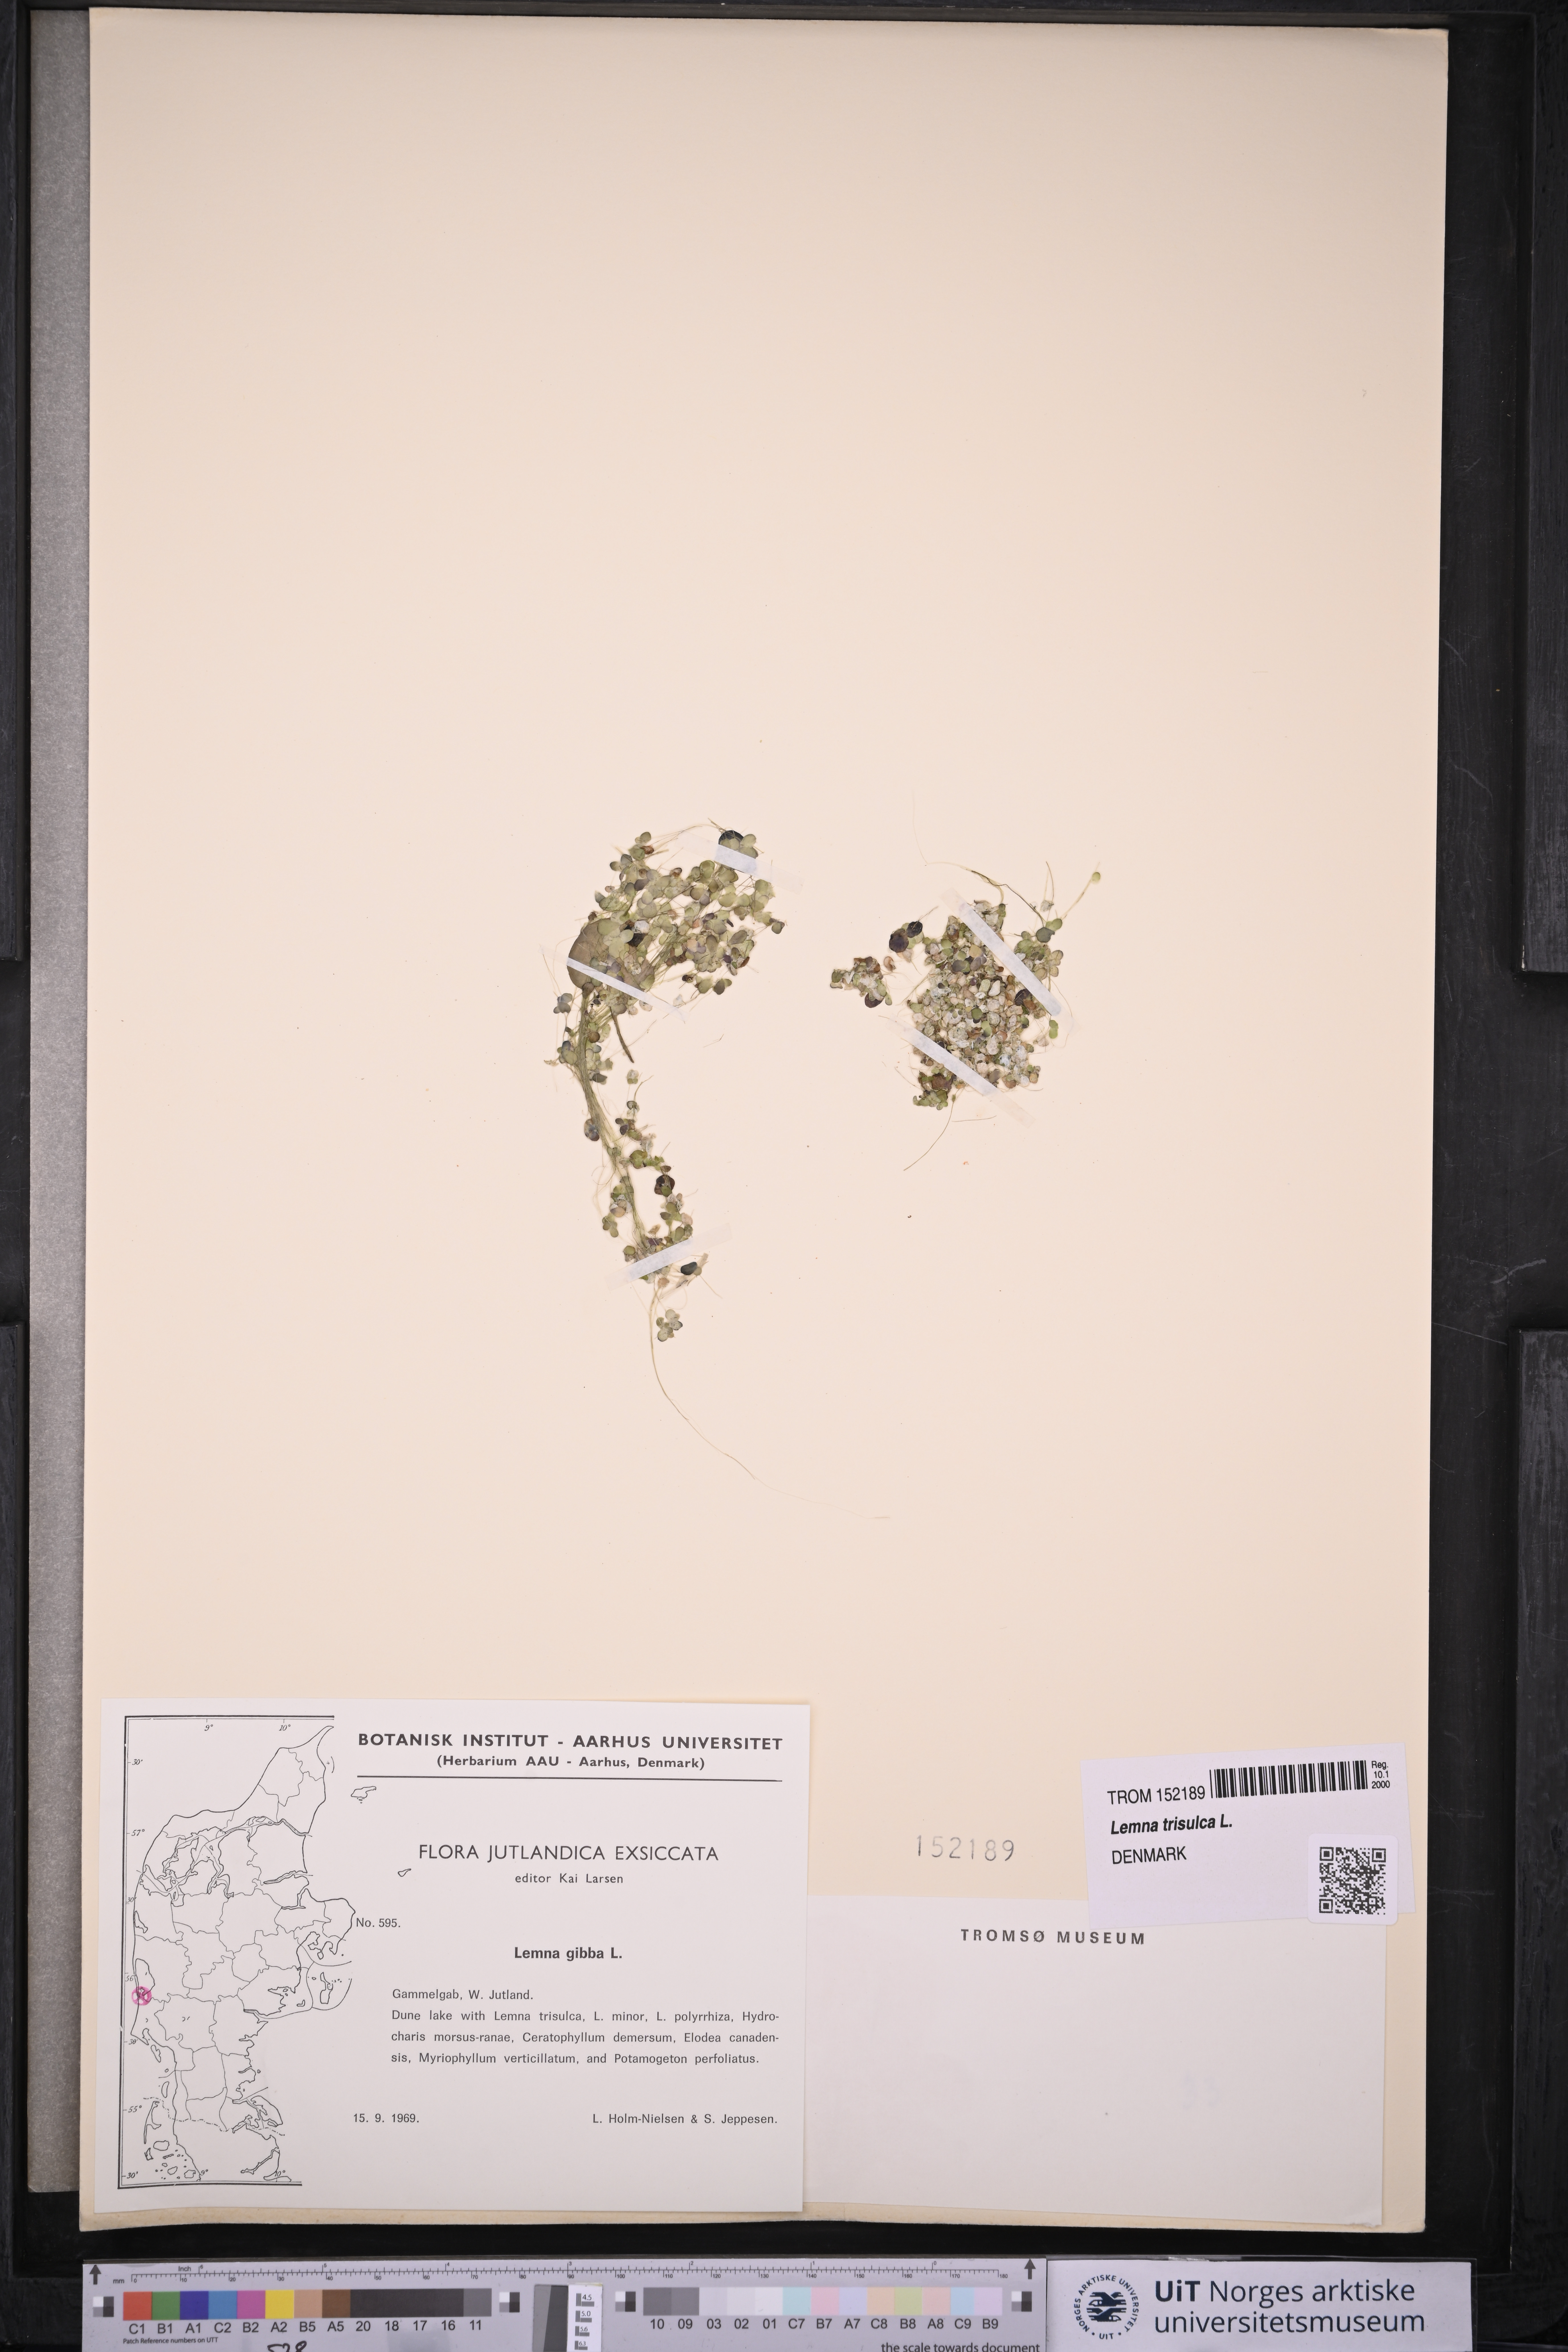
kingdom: Plantae
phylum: Tracheophyta
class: Liliopsida
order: Alismatales
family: Araceae
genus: Lemna
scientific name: Lemna trisulca
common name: Ivy-leaved duckweed
